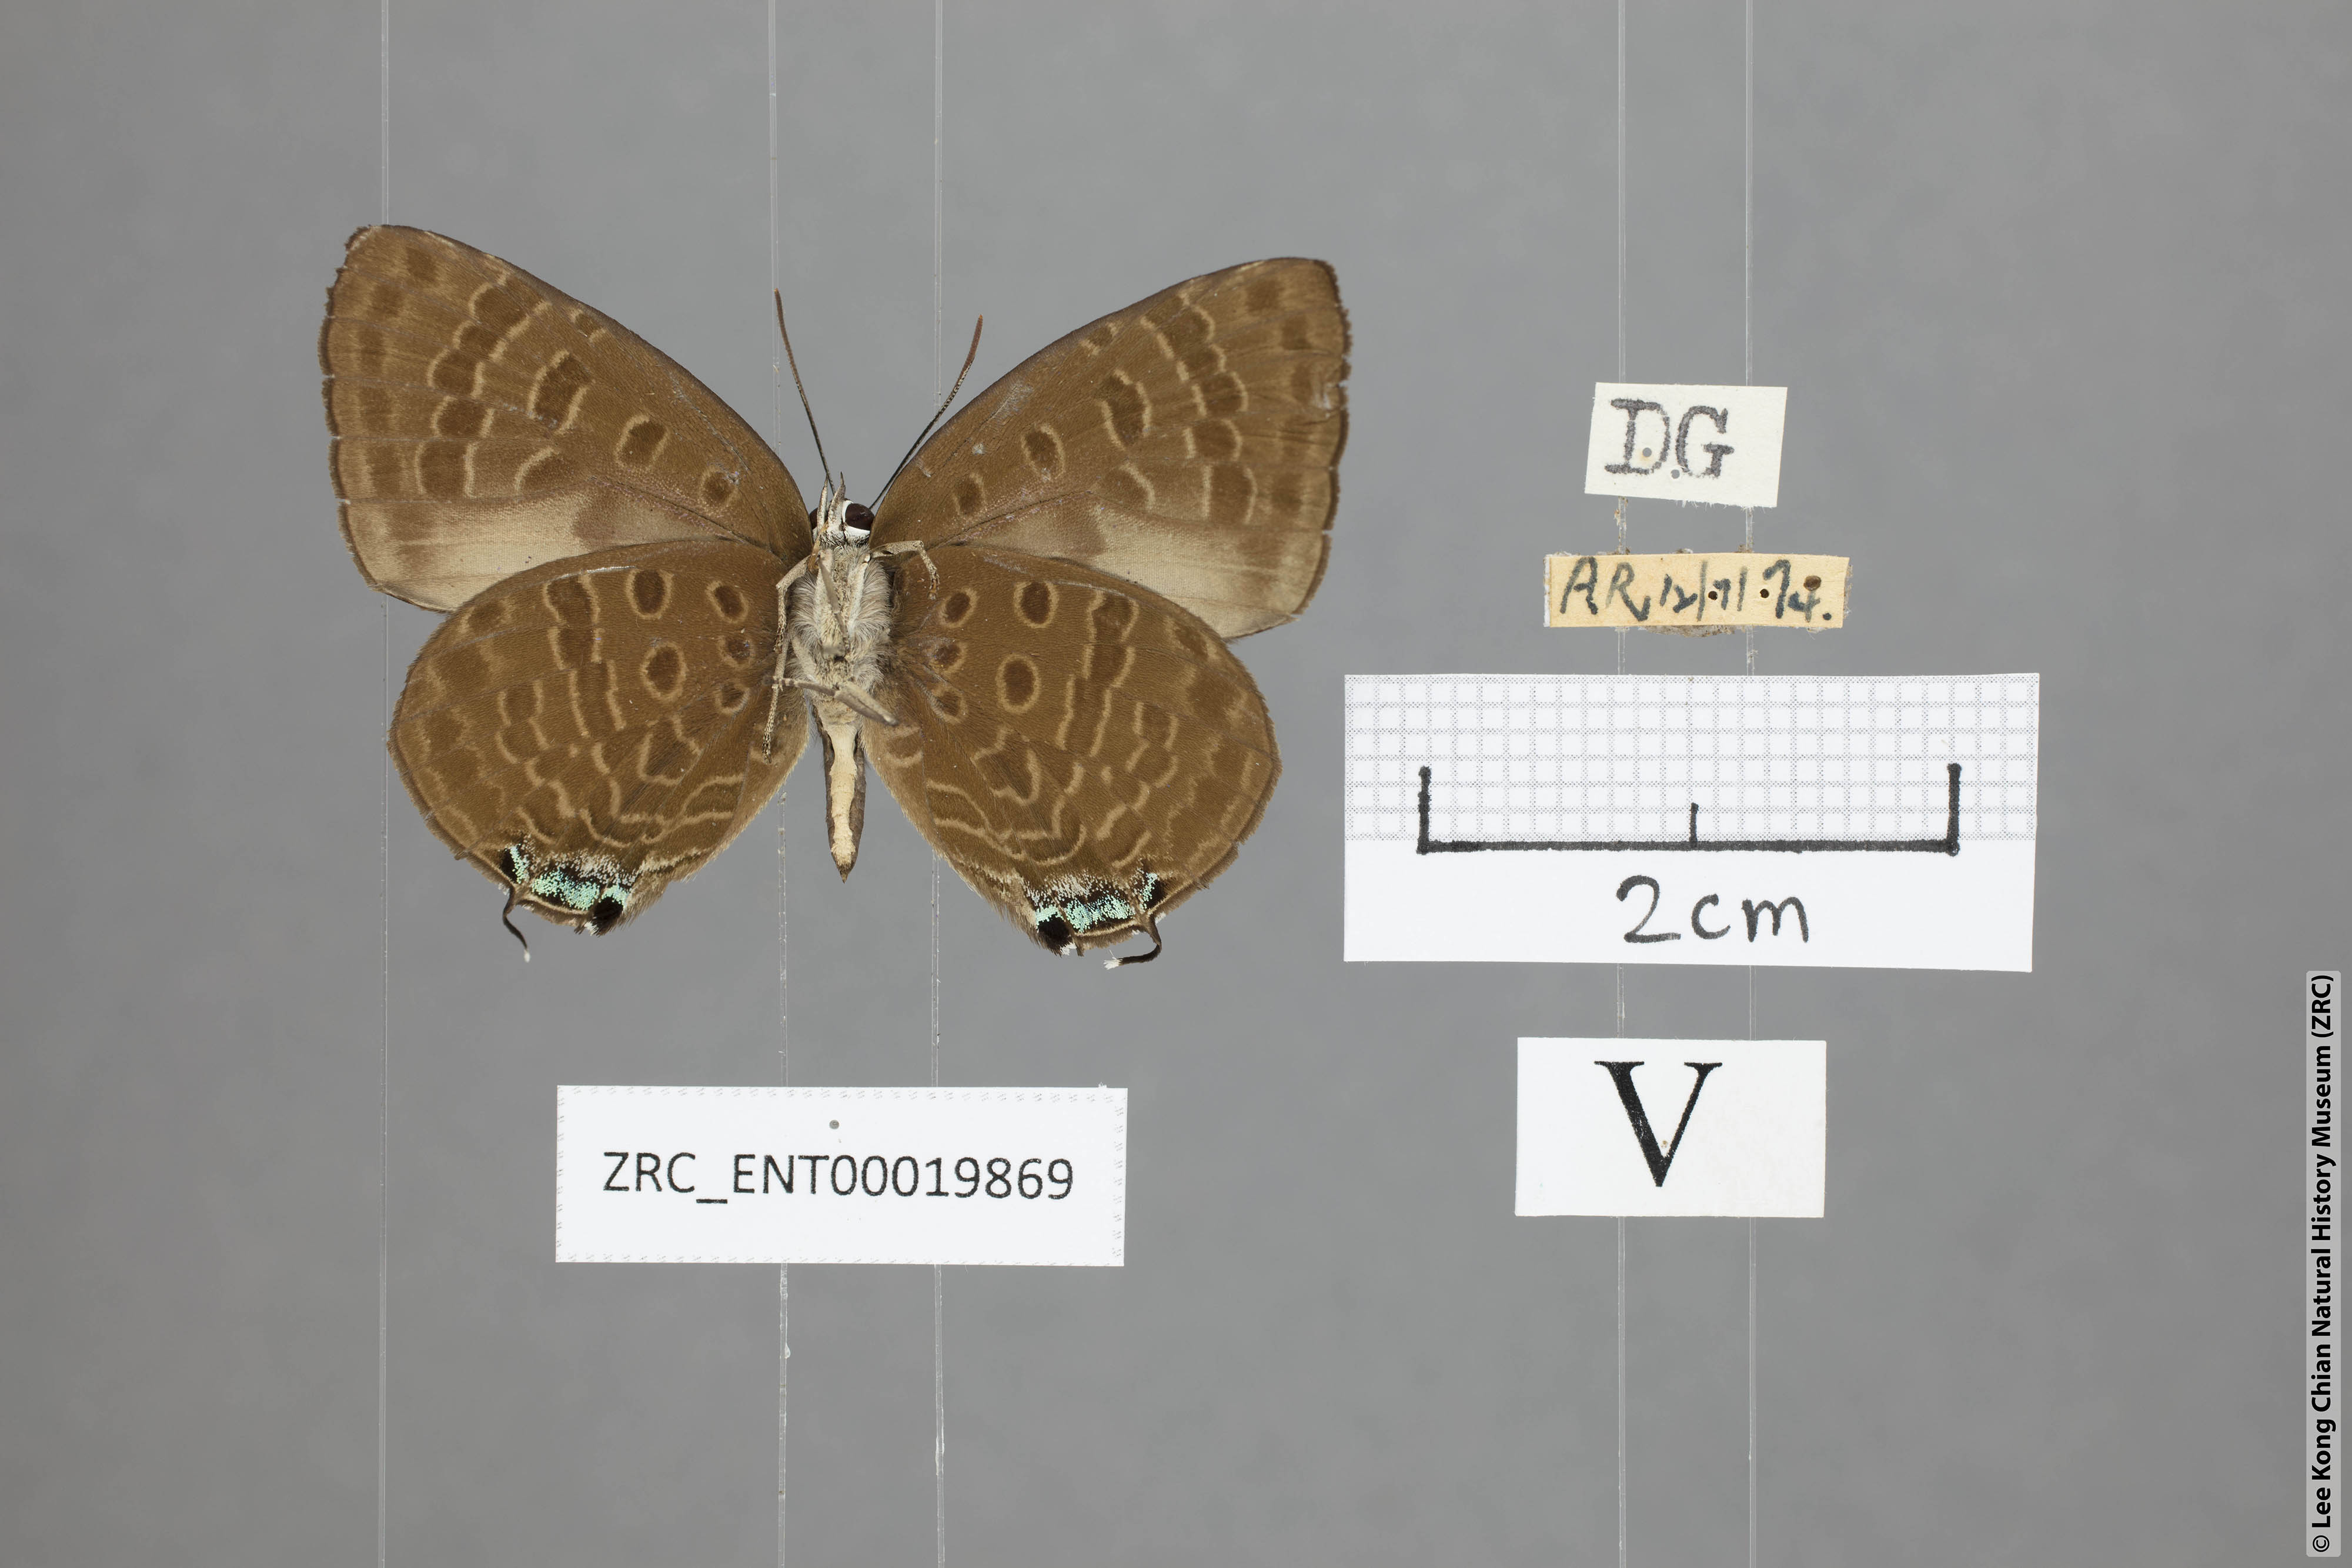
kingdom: Animalia
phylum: Arthropoda
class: Insecta
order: Lepidoptera
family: Lycaenidae
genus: Arhopala
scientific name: Arhopala sublustris
